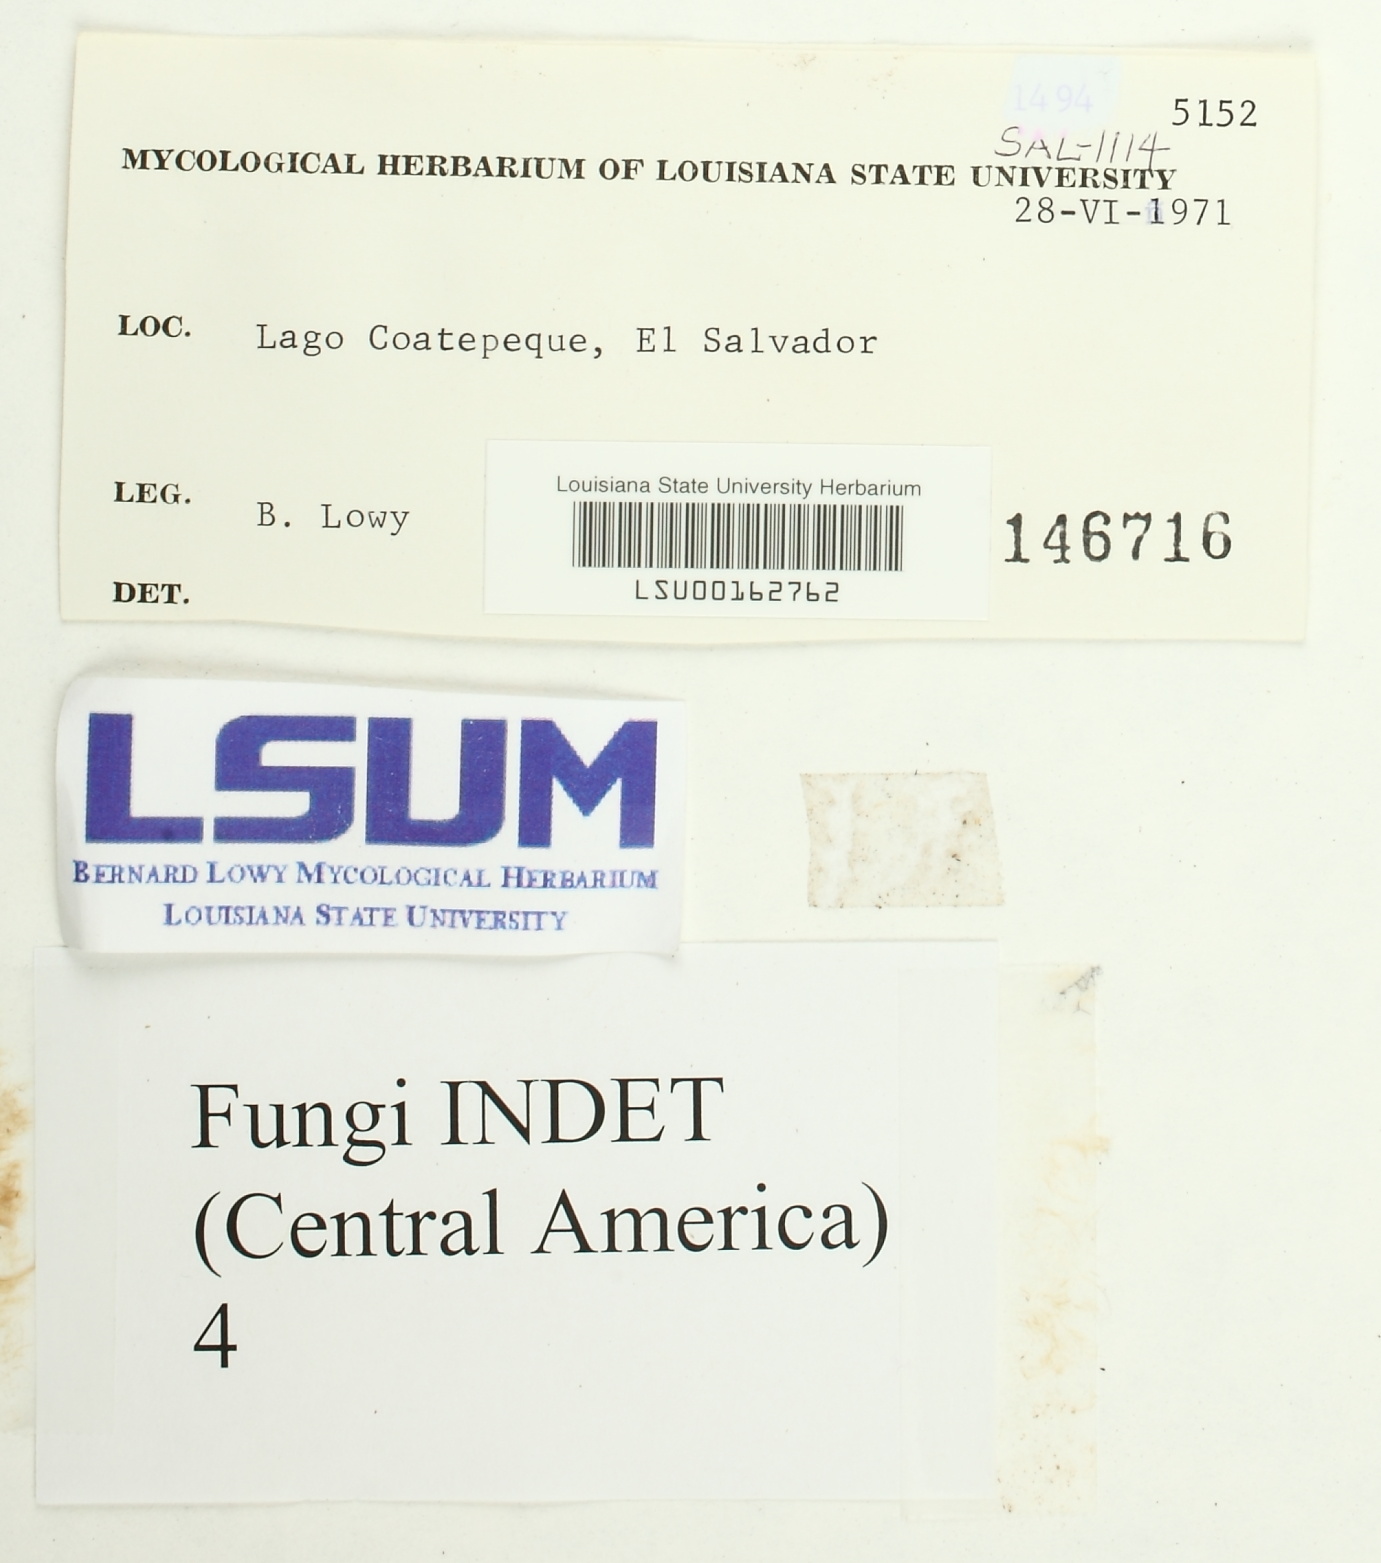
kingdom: Fungi
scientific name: Fungi
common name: Fungi
